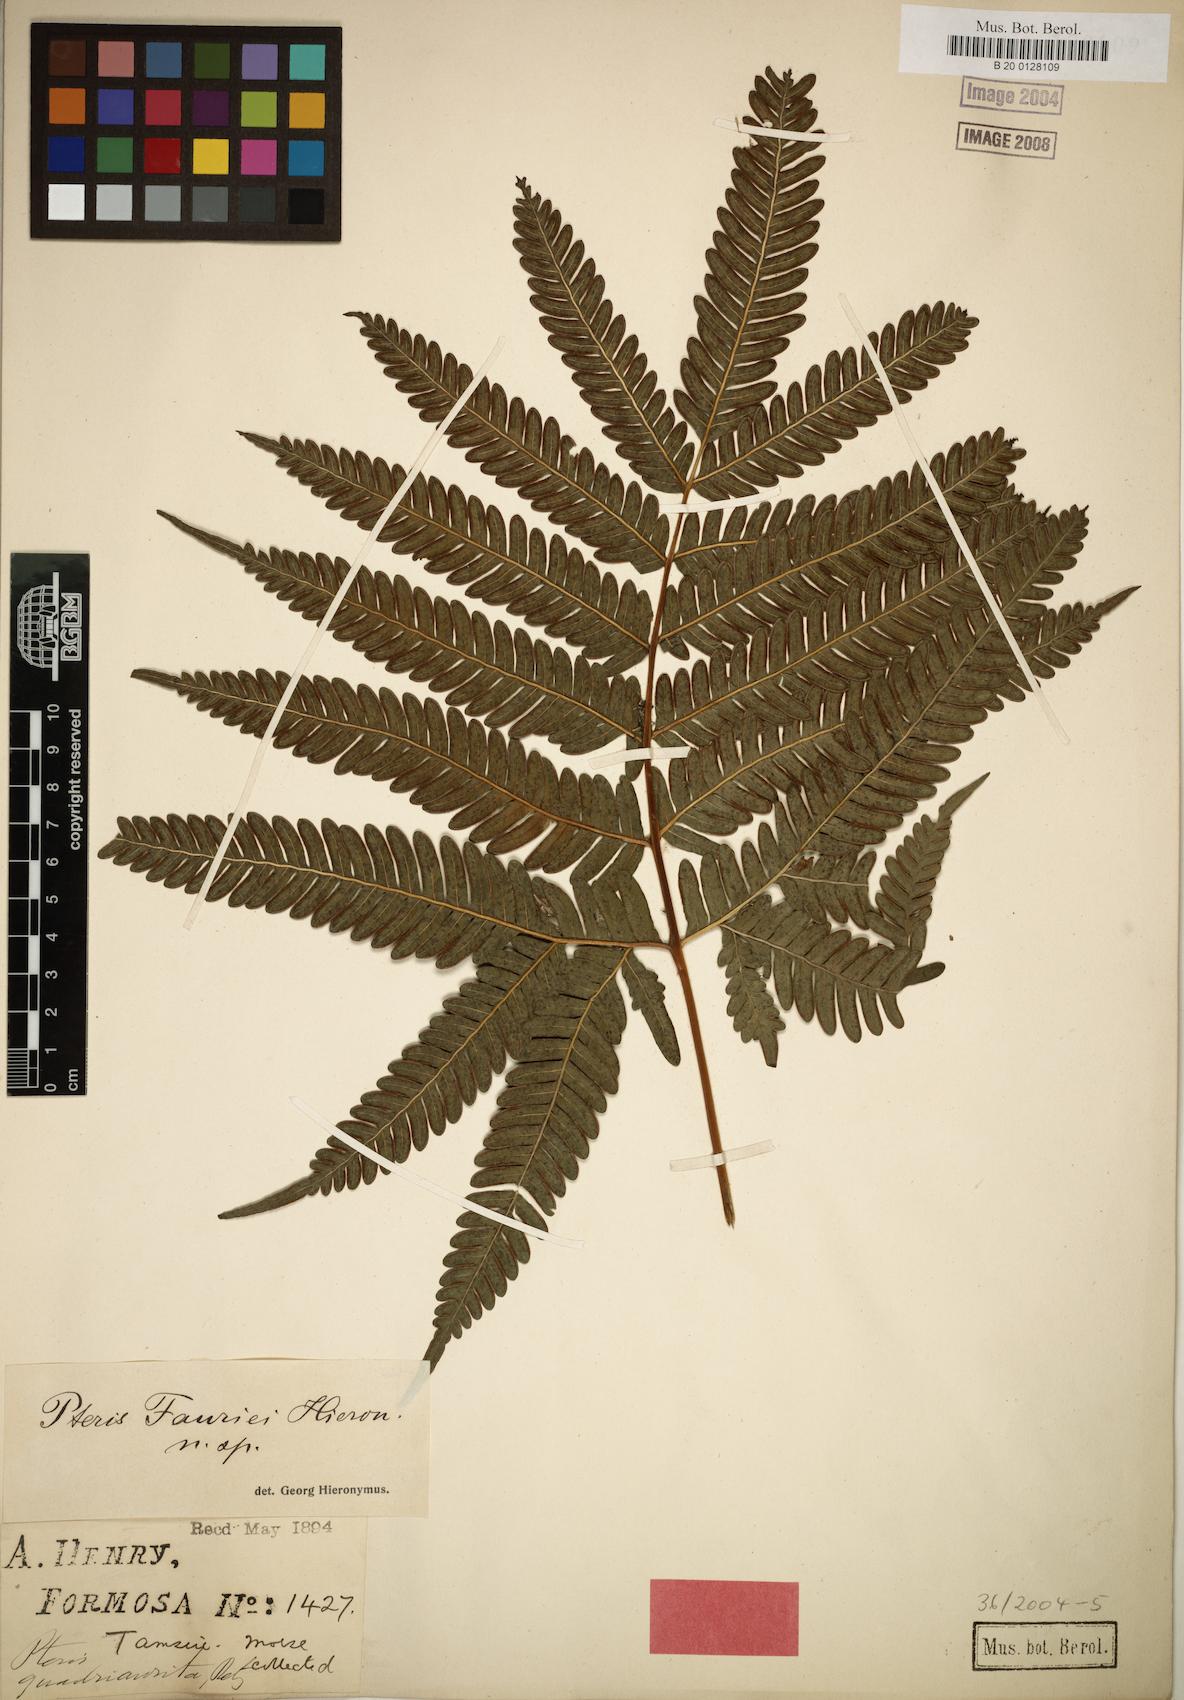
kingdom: Plantae
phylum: Tracheophyta
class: Polypodiopsida
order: Polypodiales
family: Pteridaceae
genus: Pteris
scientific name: Pteris fauriei
